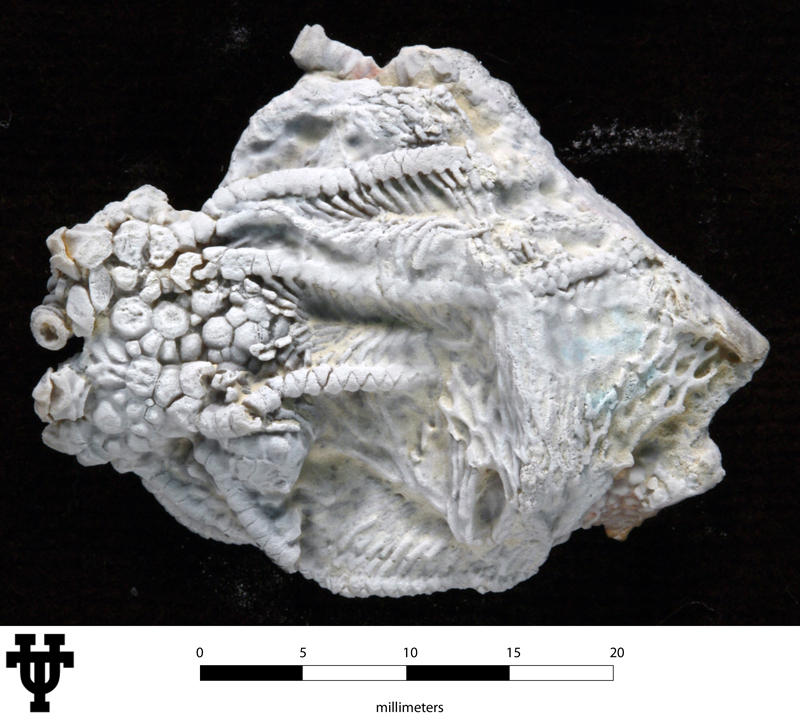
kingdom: Animalia
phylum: Echinodermata
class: Crinoidea
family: Rhodocrinitidae
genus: Diabolocrinus
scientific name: Diabolocrinus
